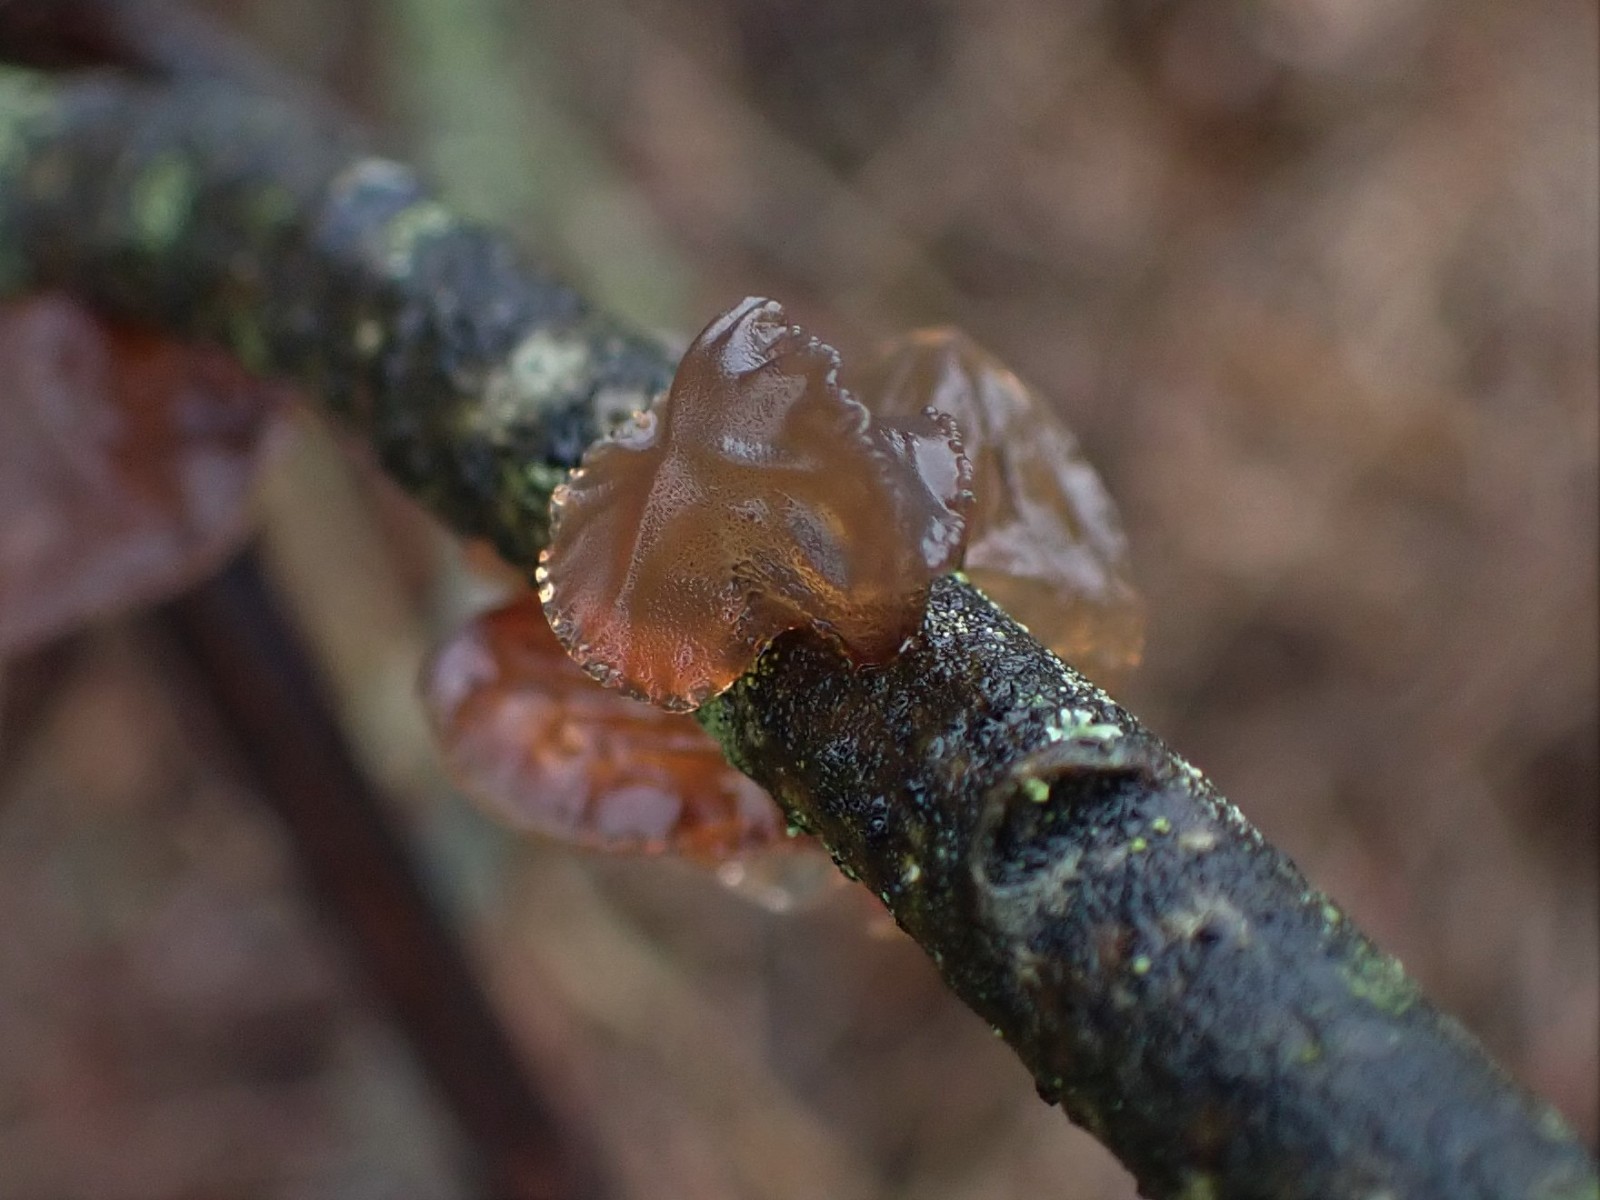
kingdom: Fungi
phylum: Basidiomycota
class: Agaricomycetes
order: Auriculariales
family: Auriculariaceae
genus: Exidia
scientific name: Exidia recisa
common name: pile-bævretop
